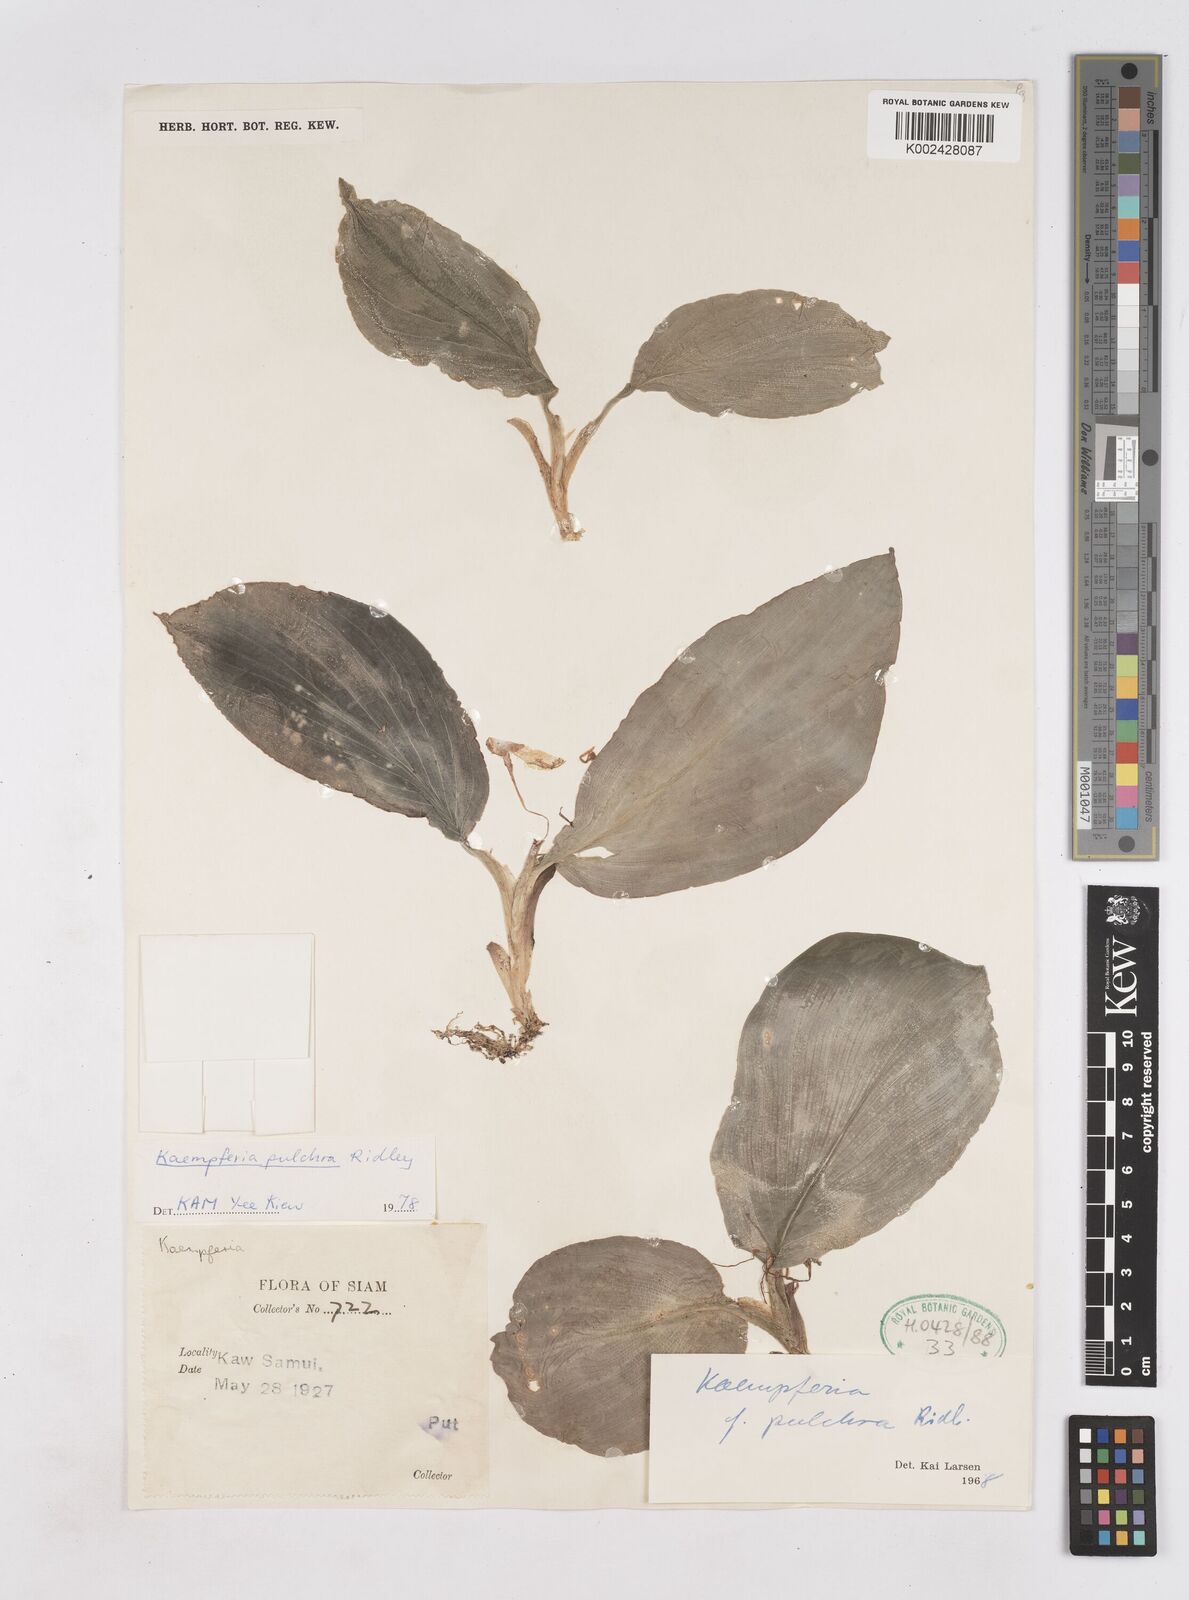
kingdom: Plantae
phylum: Tracheophyta
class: Liliopsida
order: Zingiberales
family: Zingiberaceae
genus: Kaempferia
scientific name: Kaempferia elegans
